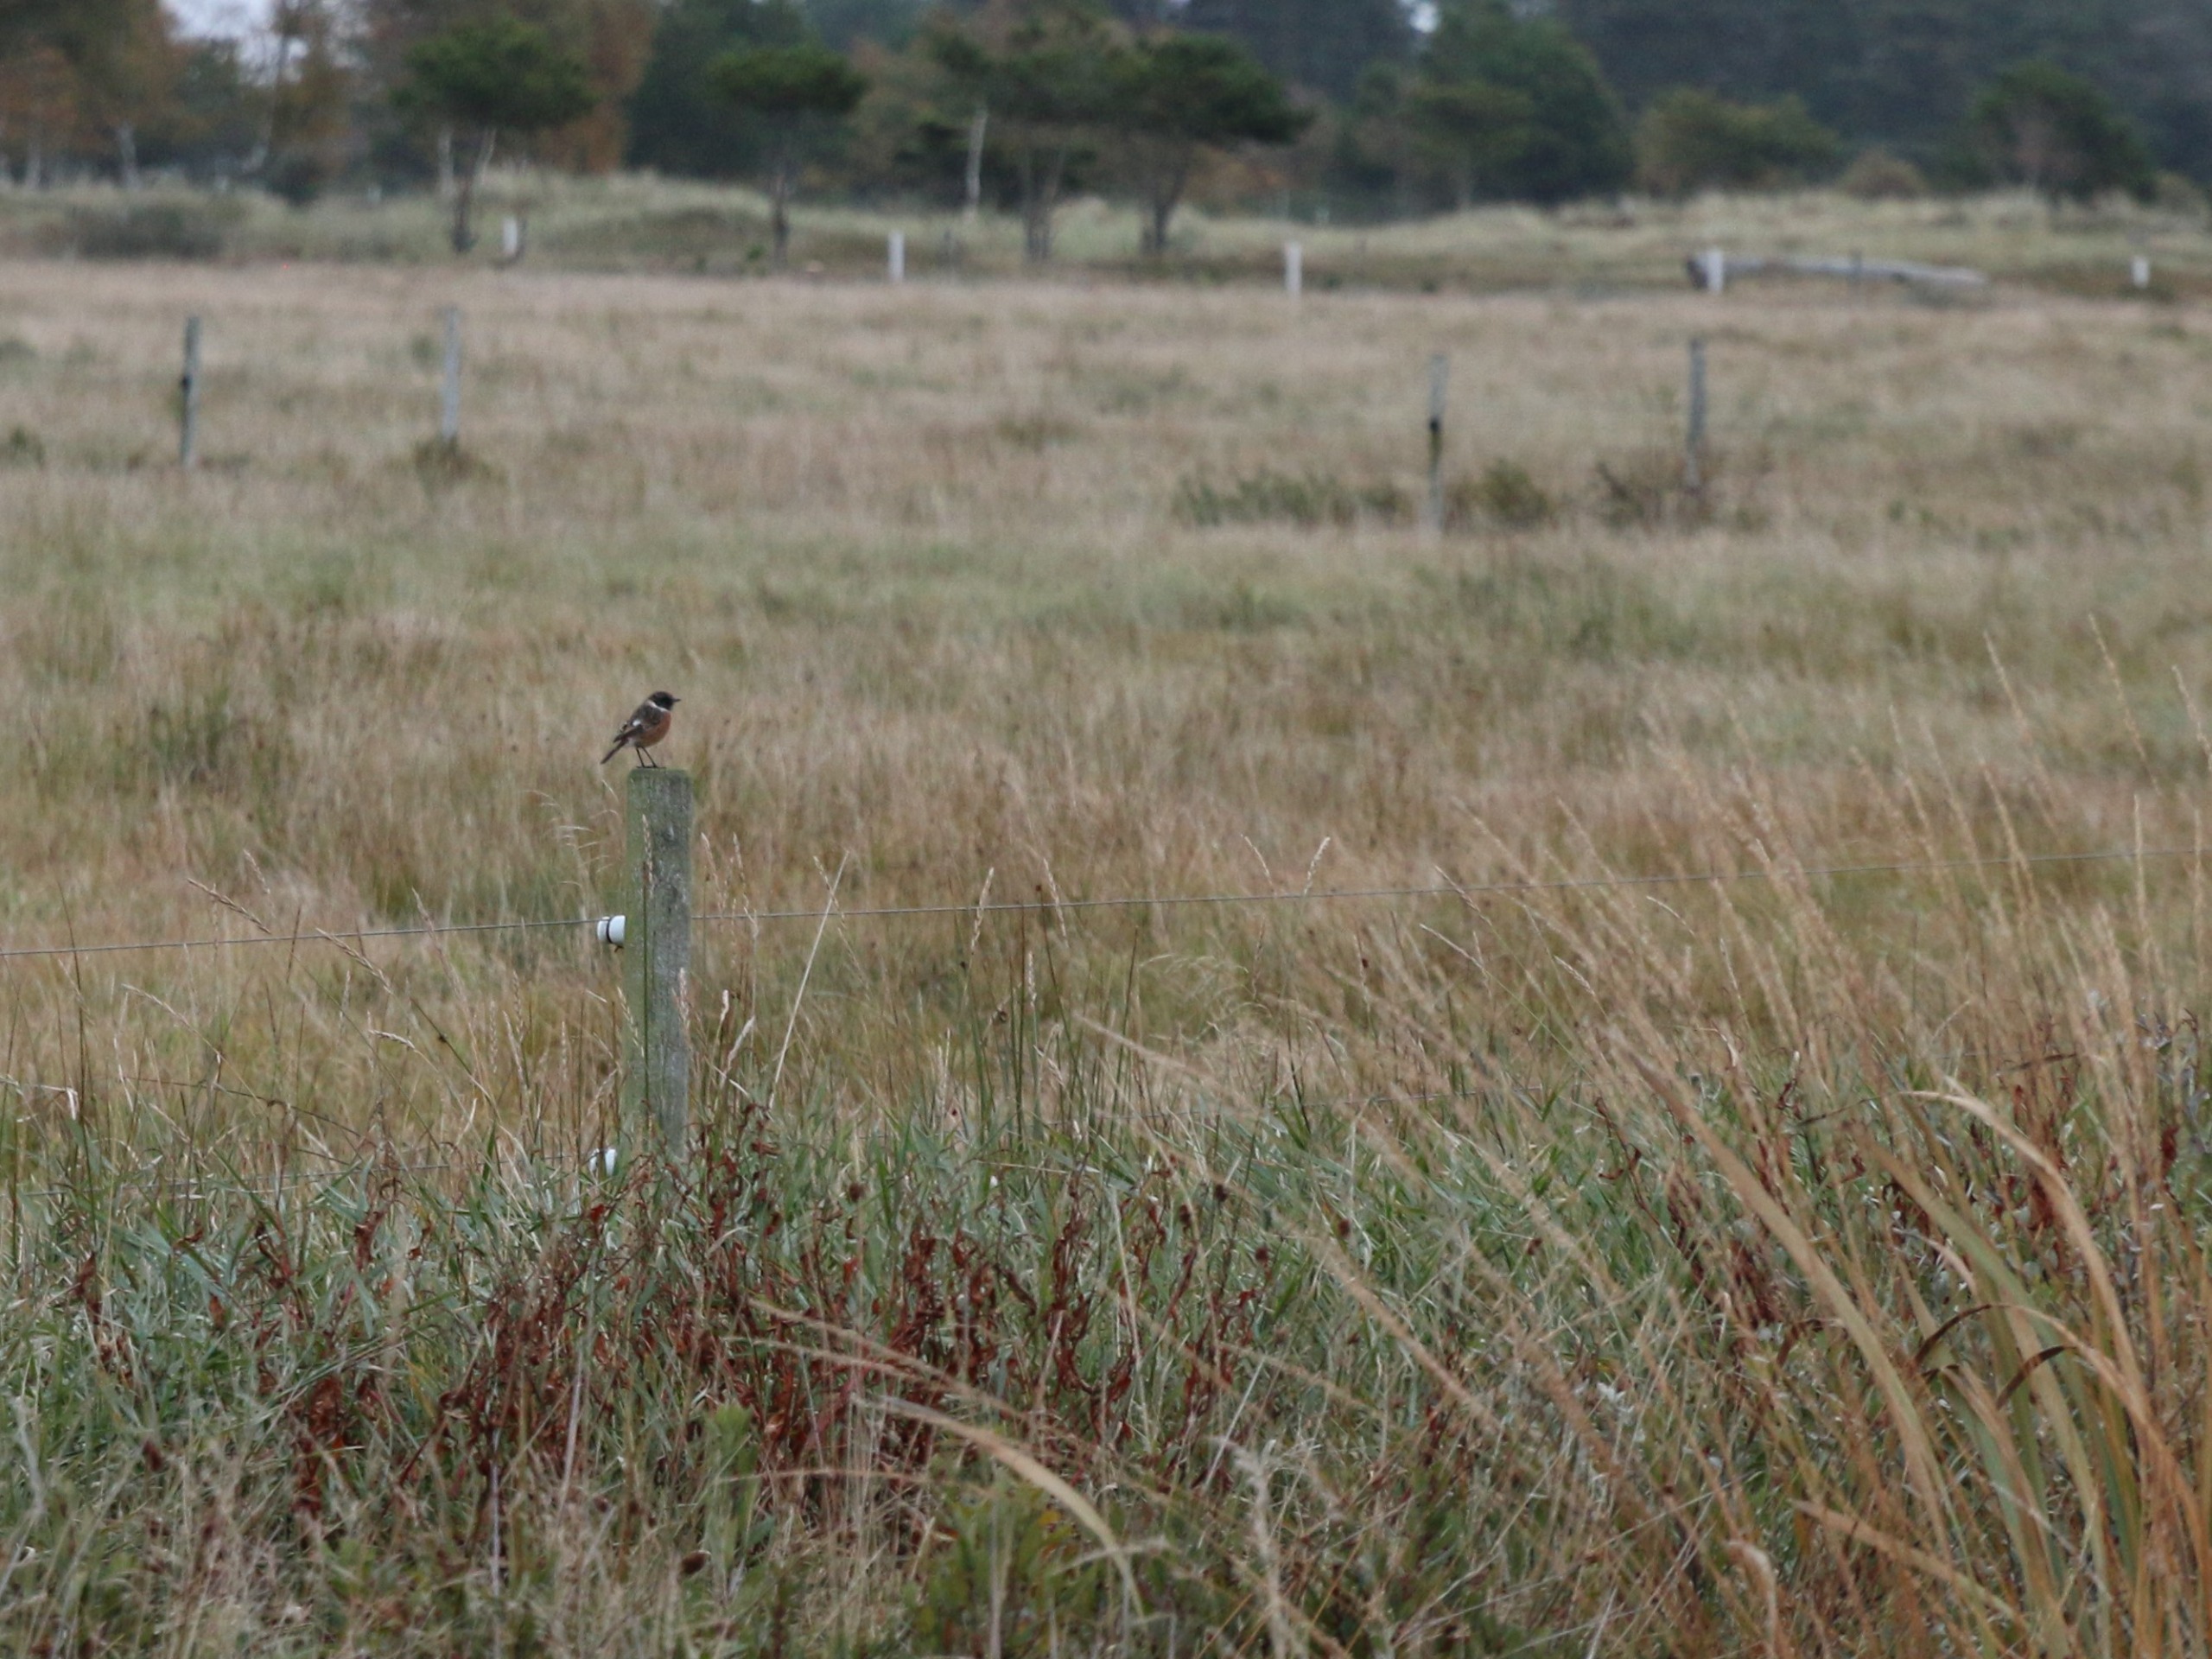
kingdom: Animalia
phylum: Chordata
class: Aves
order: Passeriformes
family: Muscicapidae
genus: Saxicola
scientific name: Saxicola rubicola
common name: Sortstrubet bynkefugl
